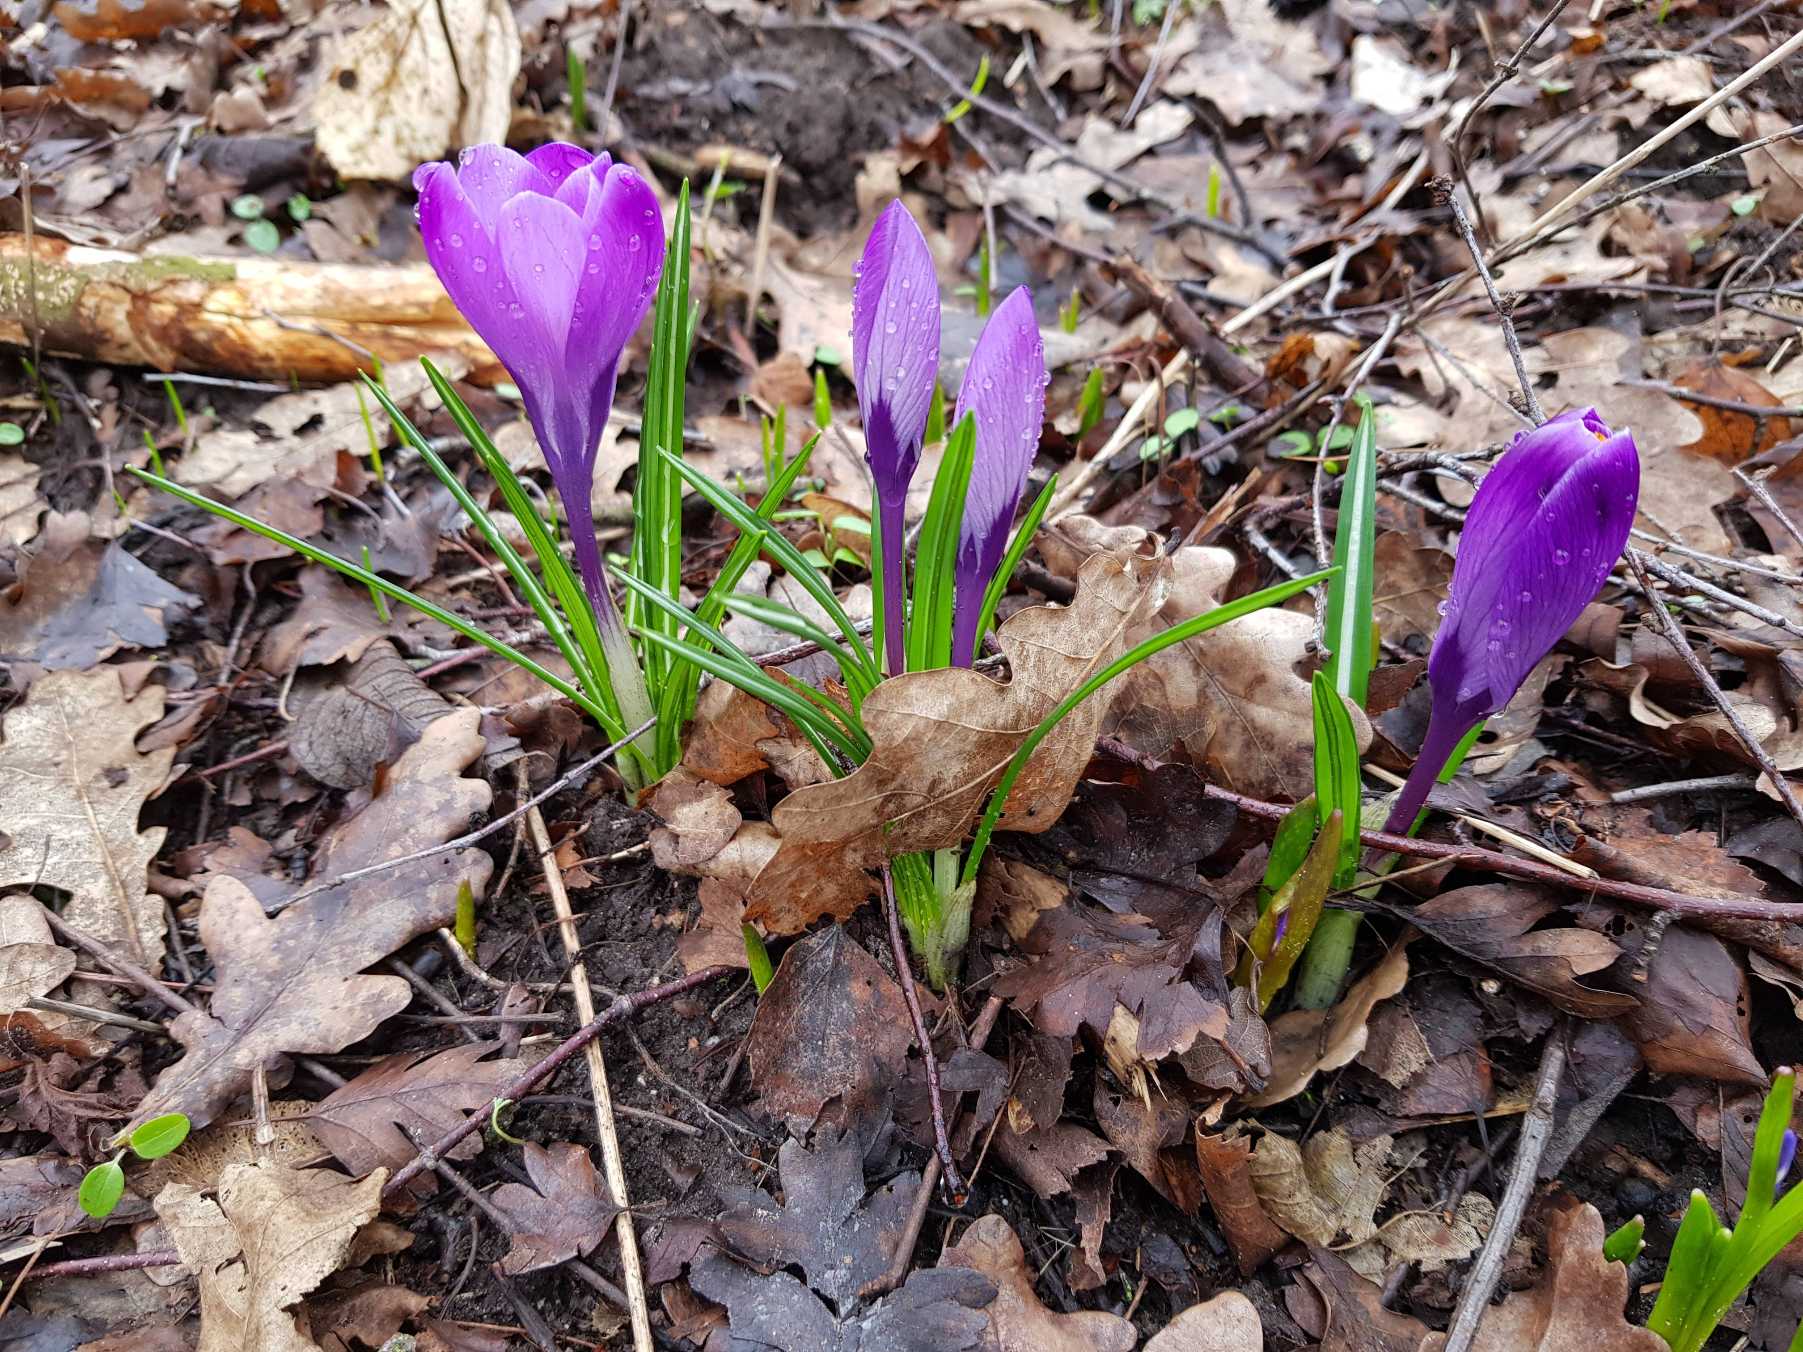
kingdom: Plantae
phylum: Tracheophyta
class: Liliopsida
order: Asparagales
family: Iridaceae
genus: Crocus
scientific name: Crocus vernus
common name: Vår-krokus
